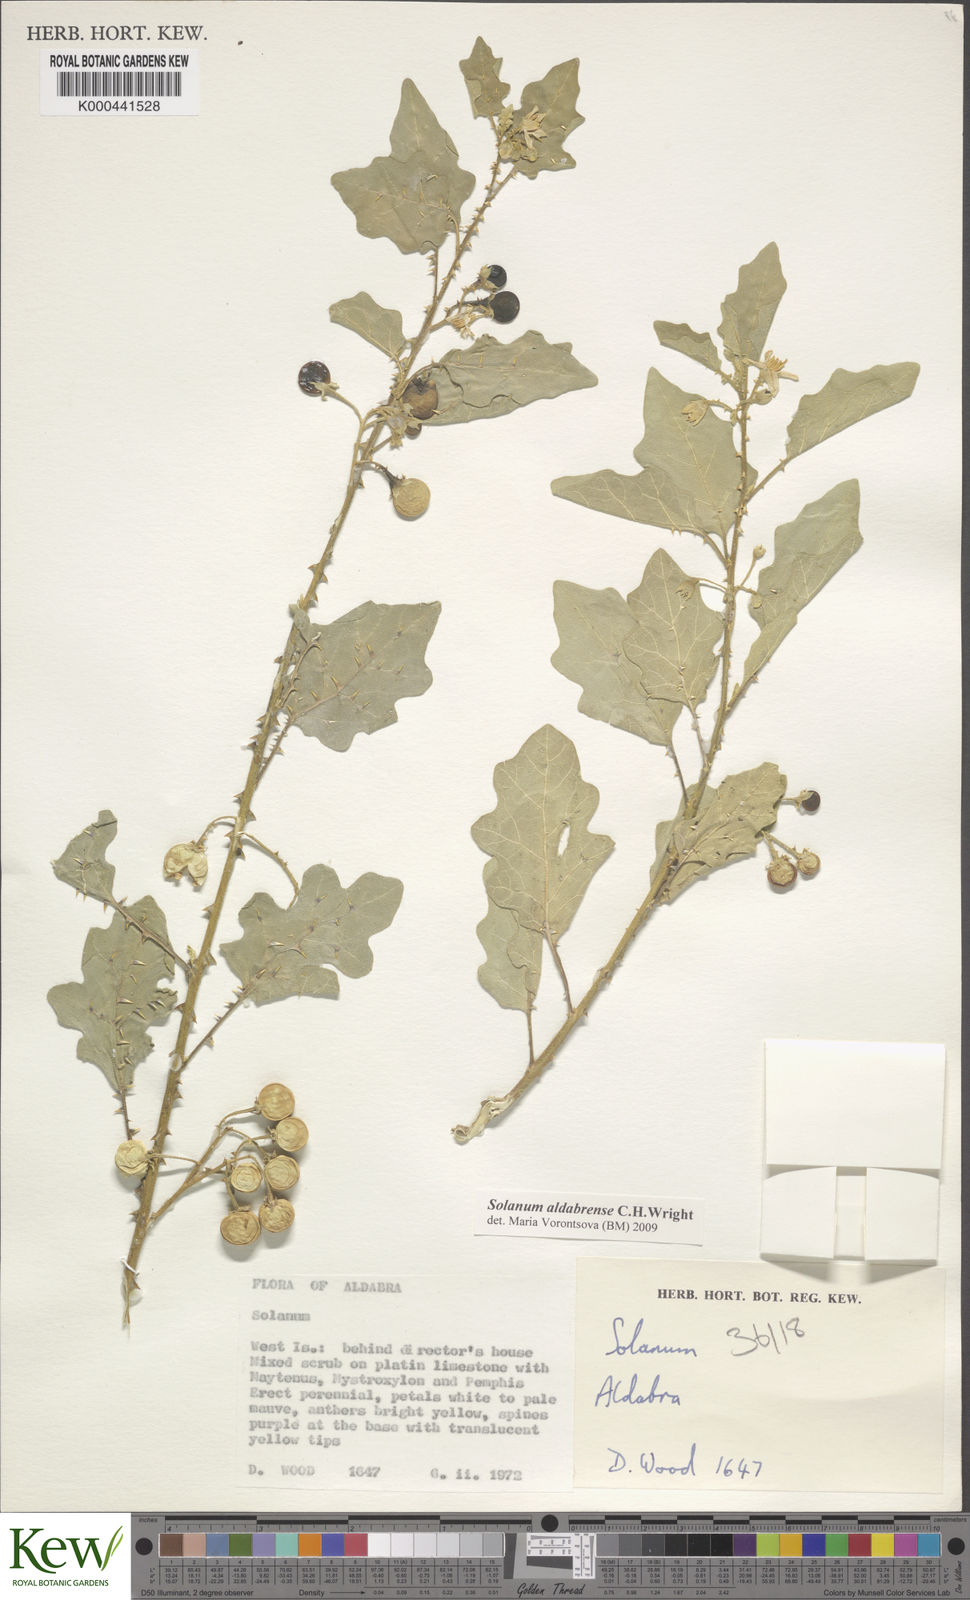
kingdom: Plantae
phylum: Tracheophyta
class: Magnoliopsida
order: Solanales
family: Solanaceae
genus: Solanum
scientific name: Solanum aldabrense
